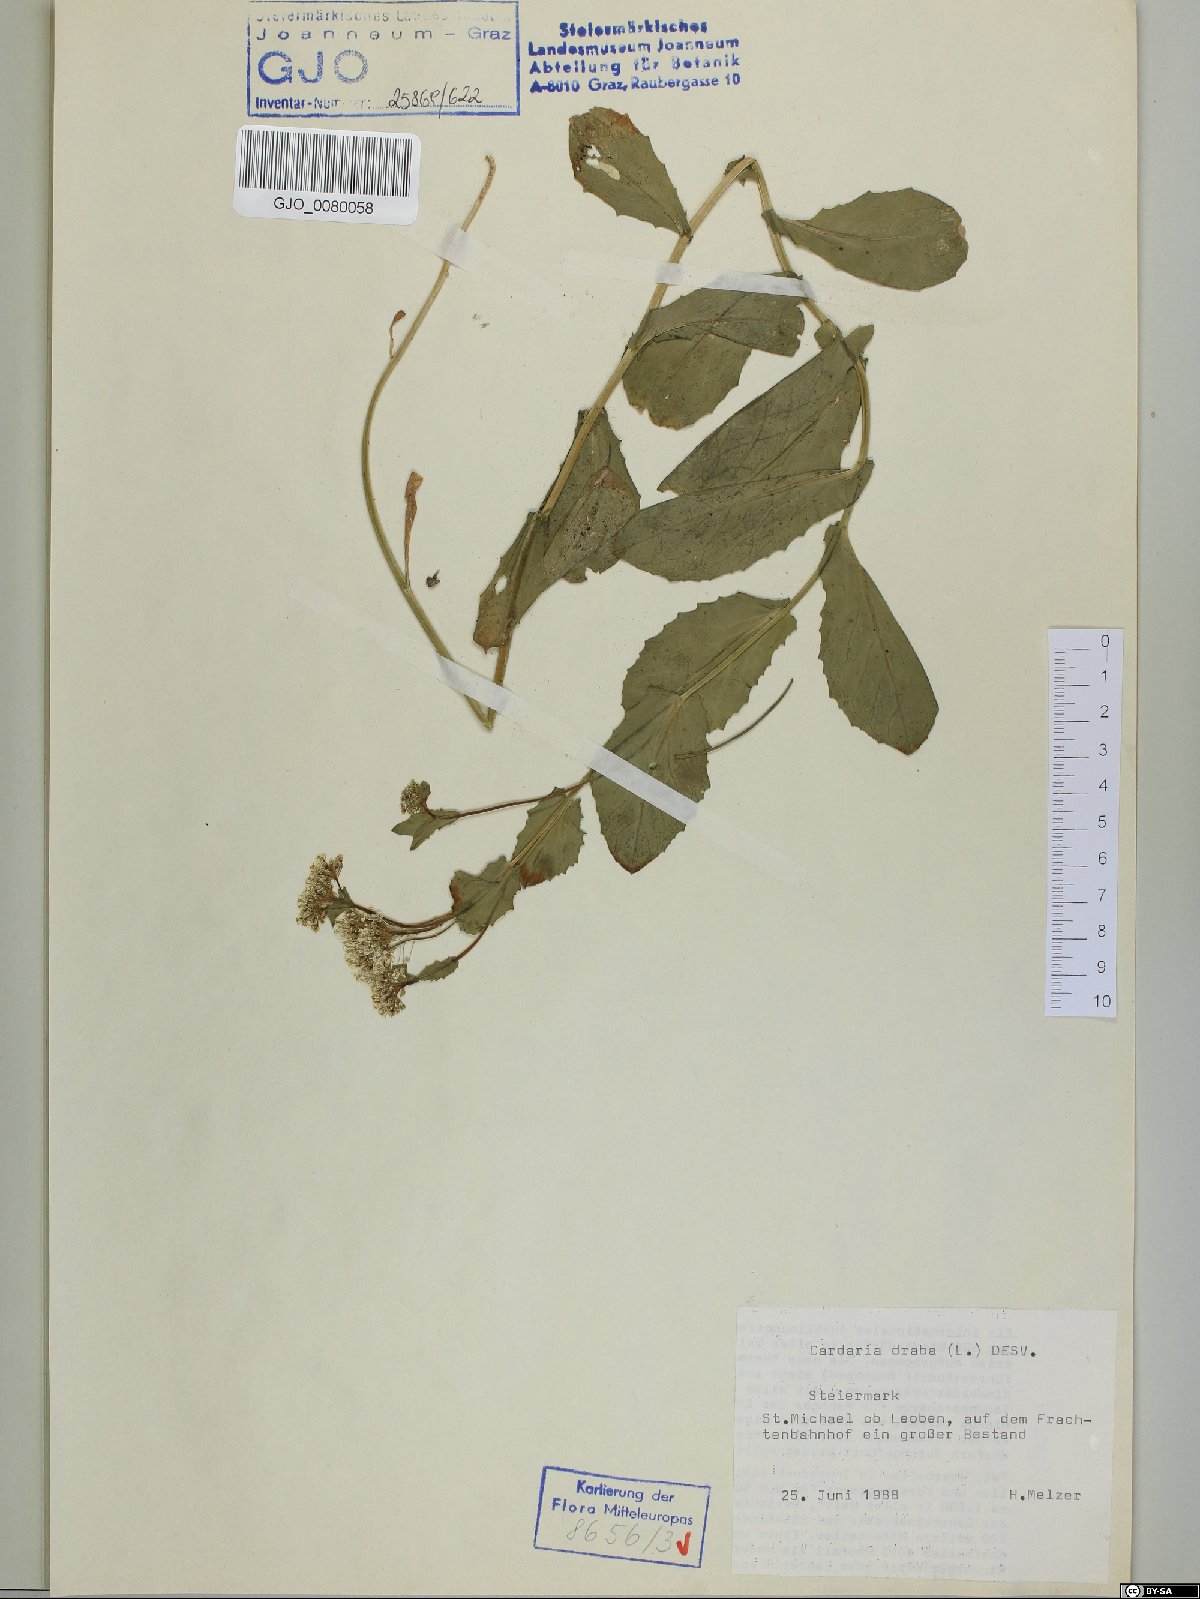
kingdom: Plantae
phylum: Tracheophyta
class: Magnoliopsida
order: Brassicales
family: Brassicaceae
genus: Lepidium
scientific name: Lepidium draba
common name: Hoary cress
